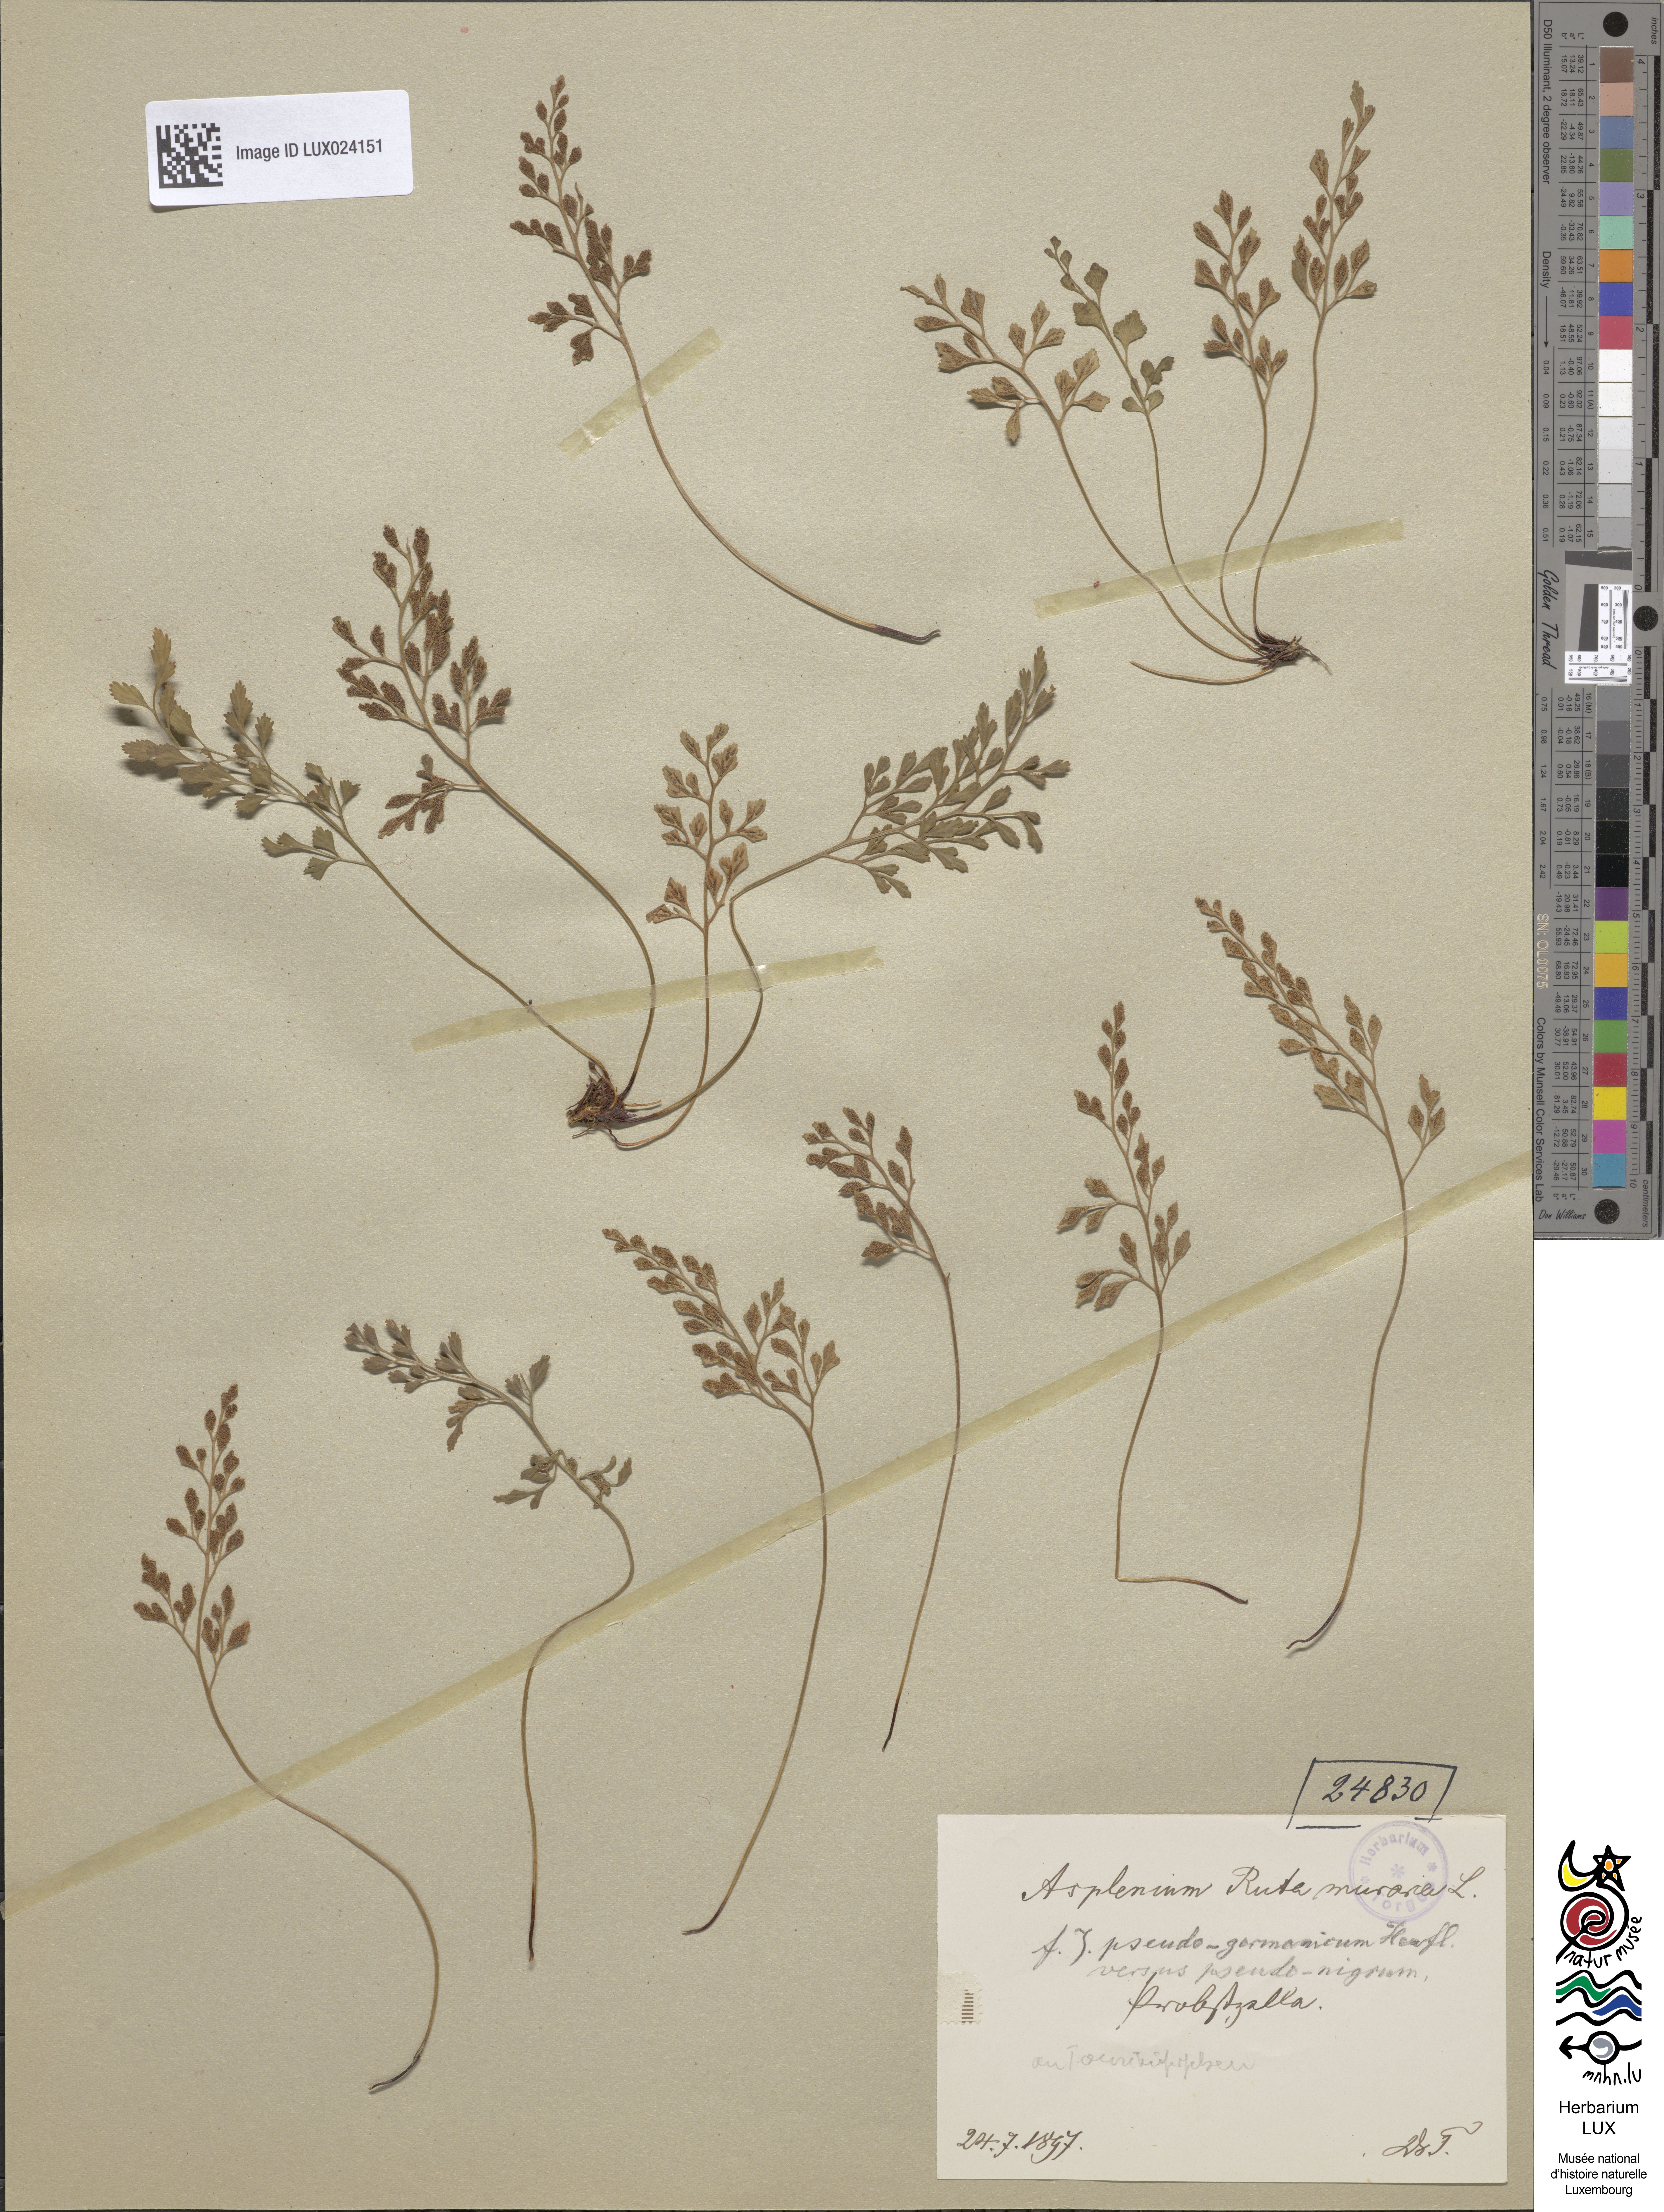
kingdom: Plantae
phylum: Tracheophyta
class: Polypodiopsida
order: Polypodiales
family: Aspleniaceae
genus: Asplenium
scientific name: Asplenium ruta-muraria
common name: Wall-rue
